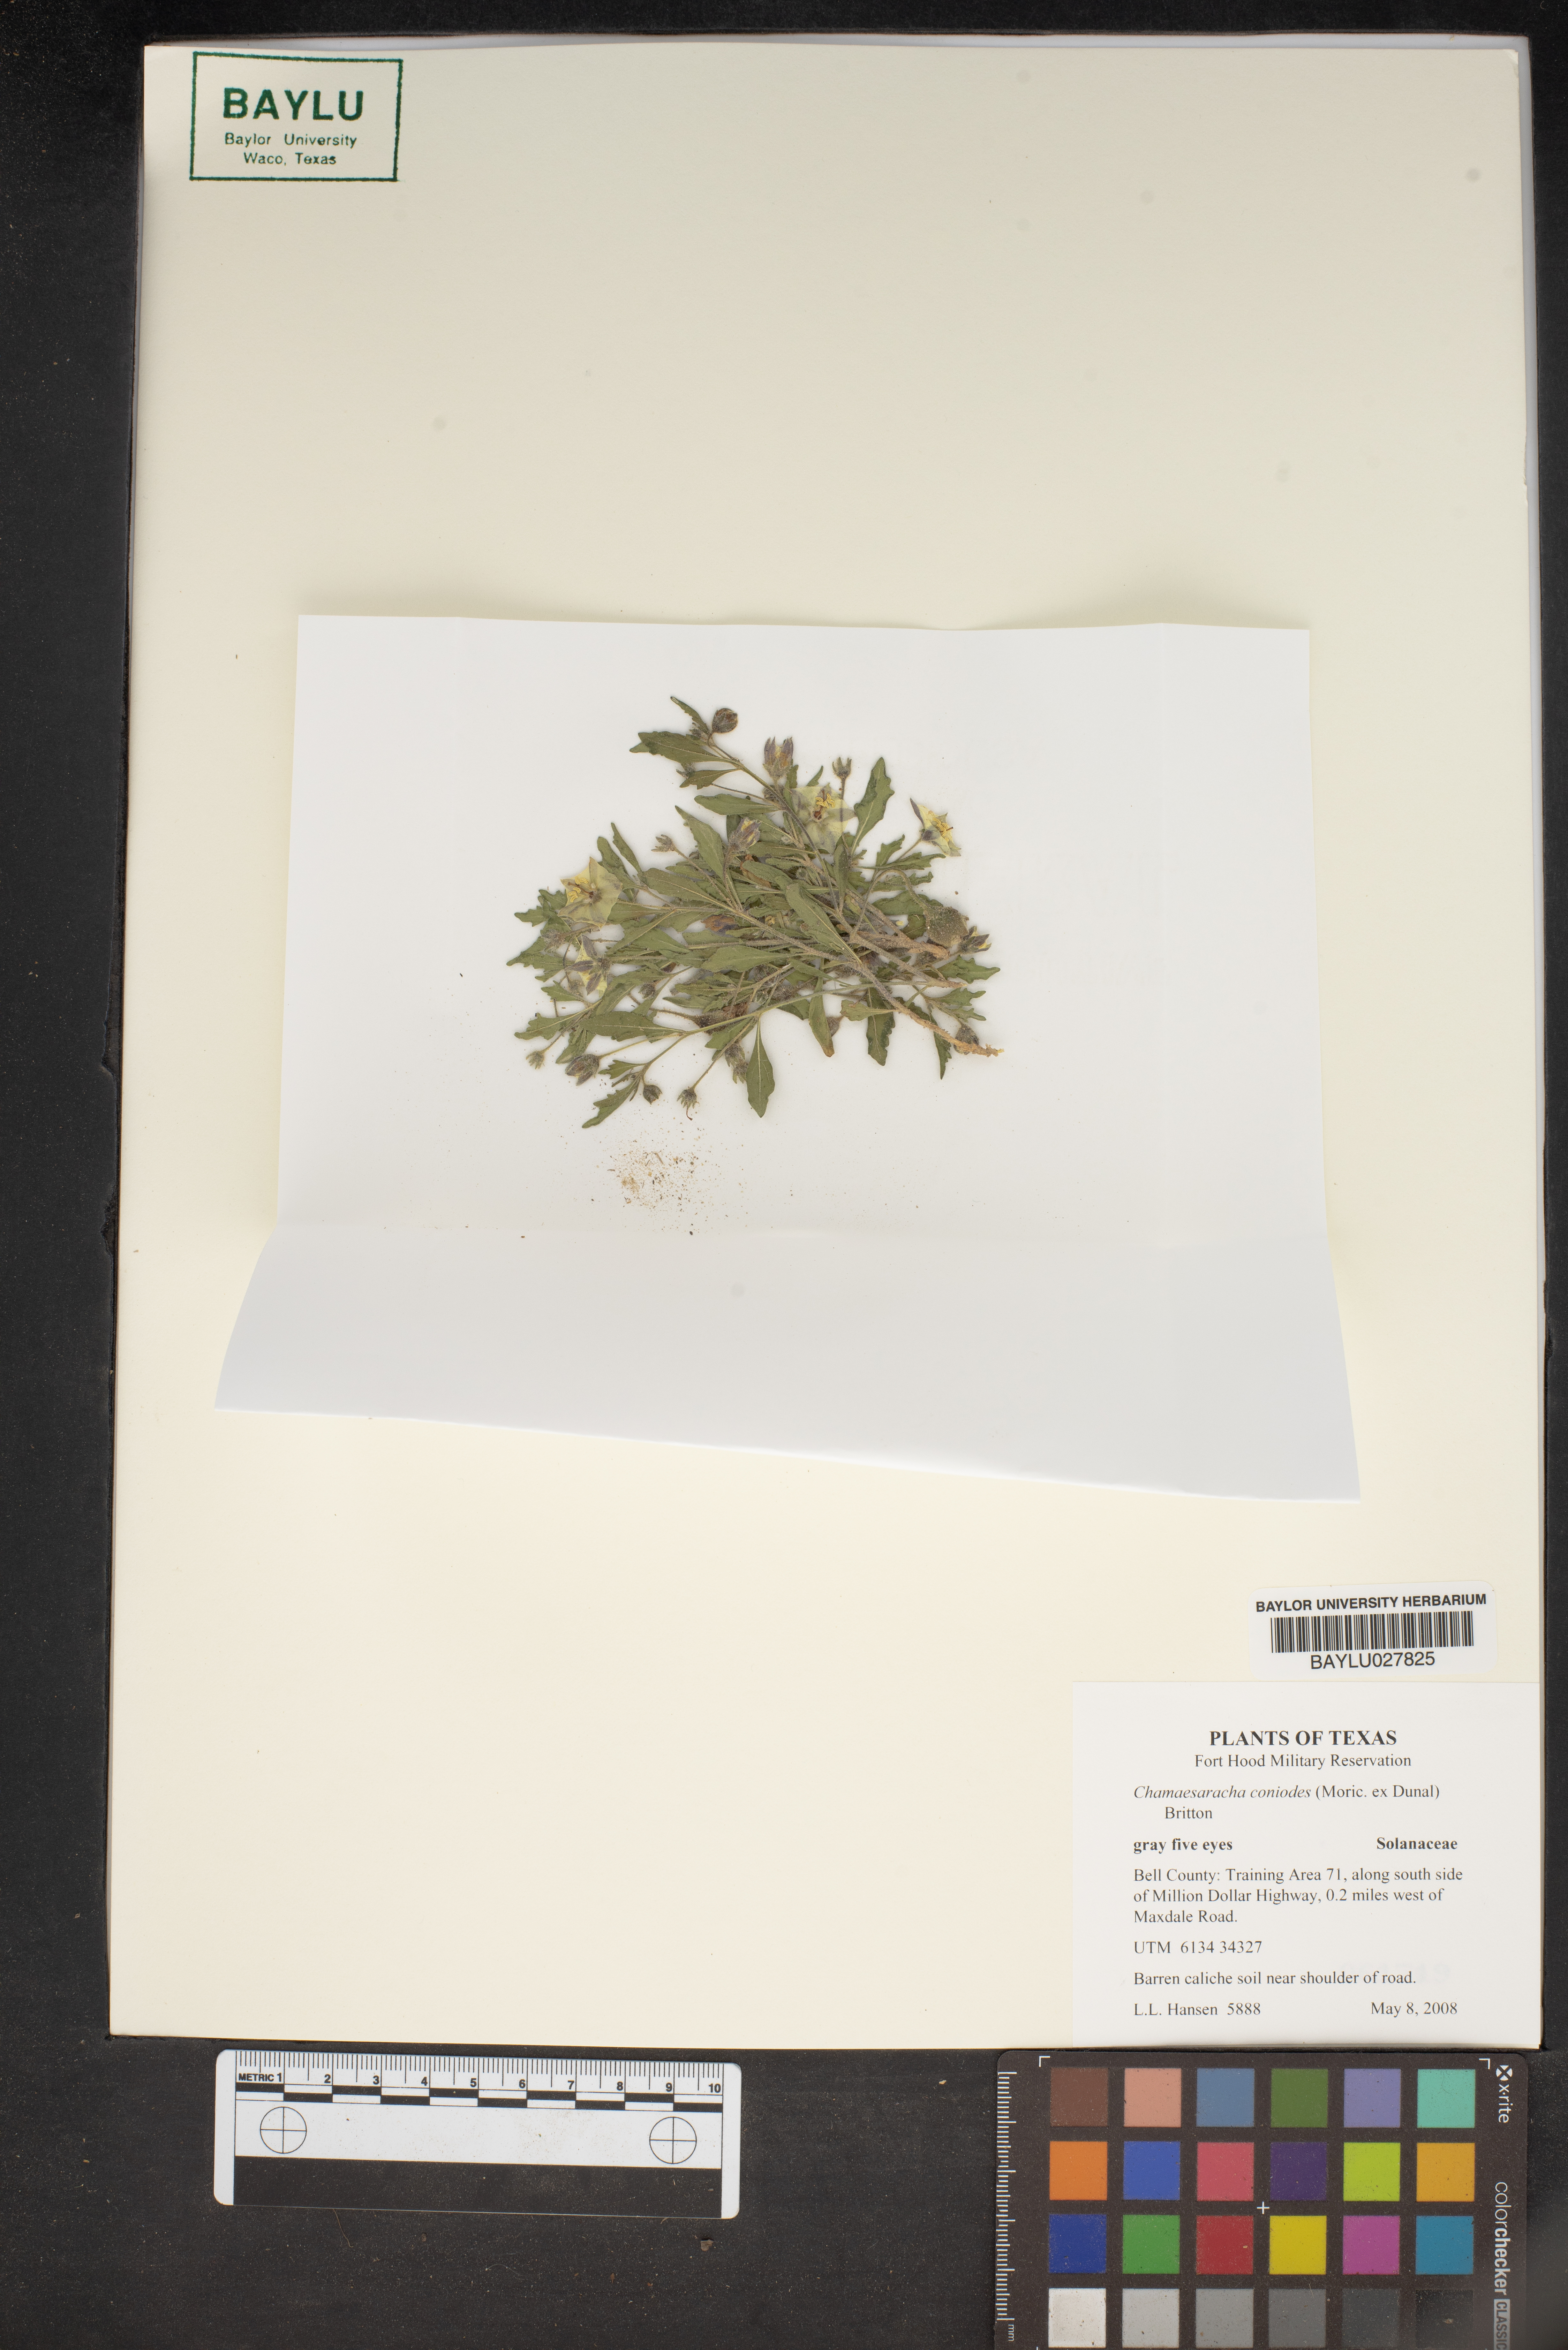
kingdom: Plantae
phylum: Tracheophyta
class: Magnoliopsida
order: Solanales
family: Solanaceae
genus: Chamaesaracha
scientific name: Chamaesaracha coniodes
